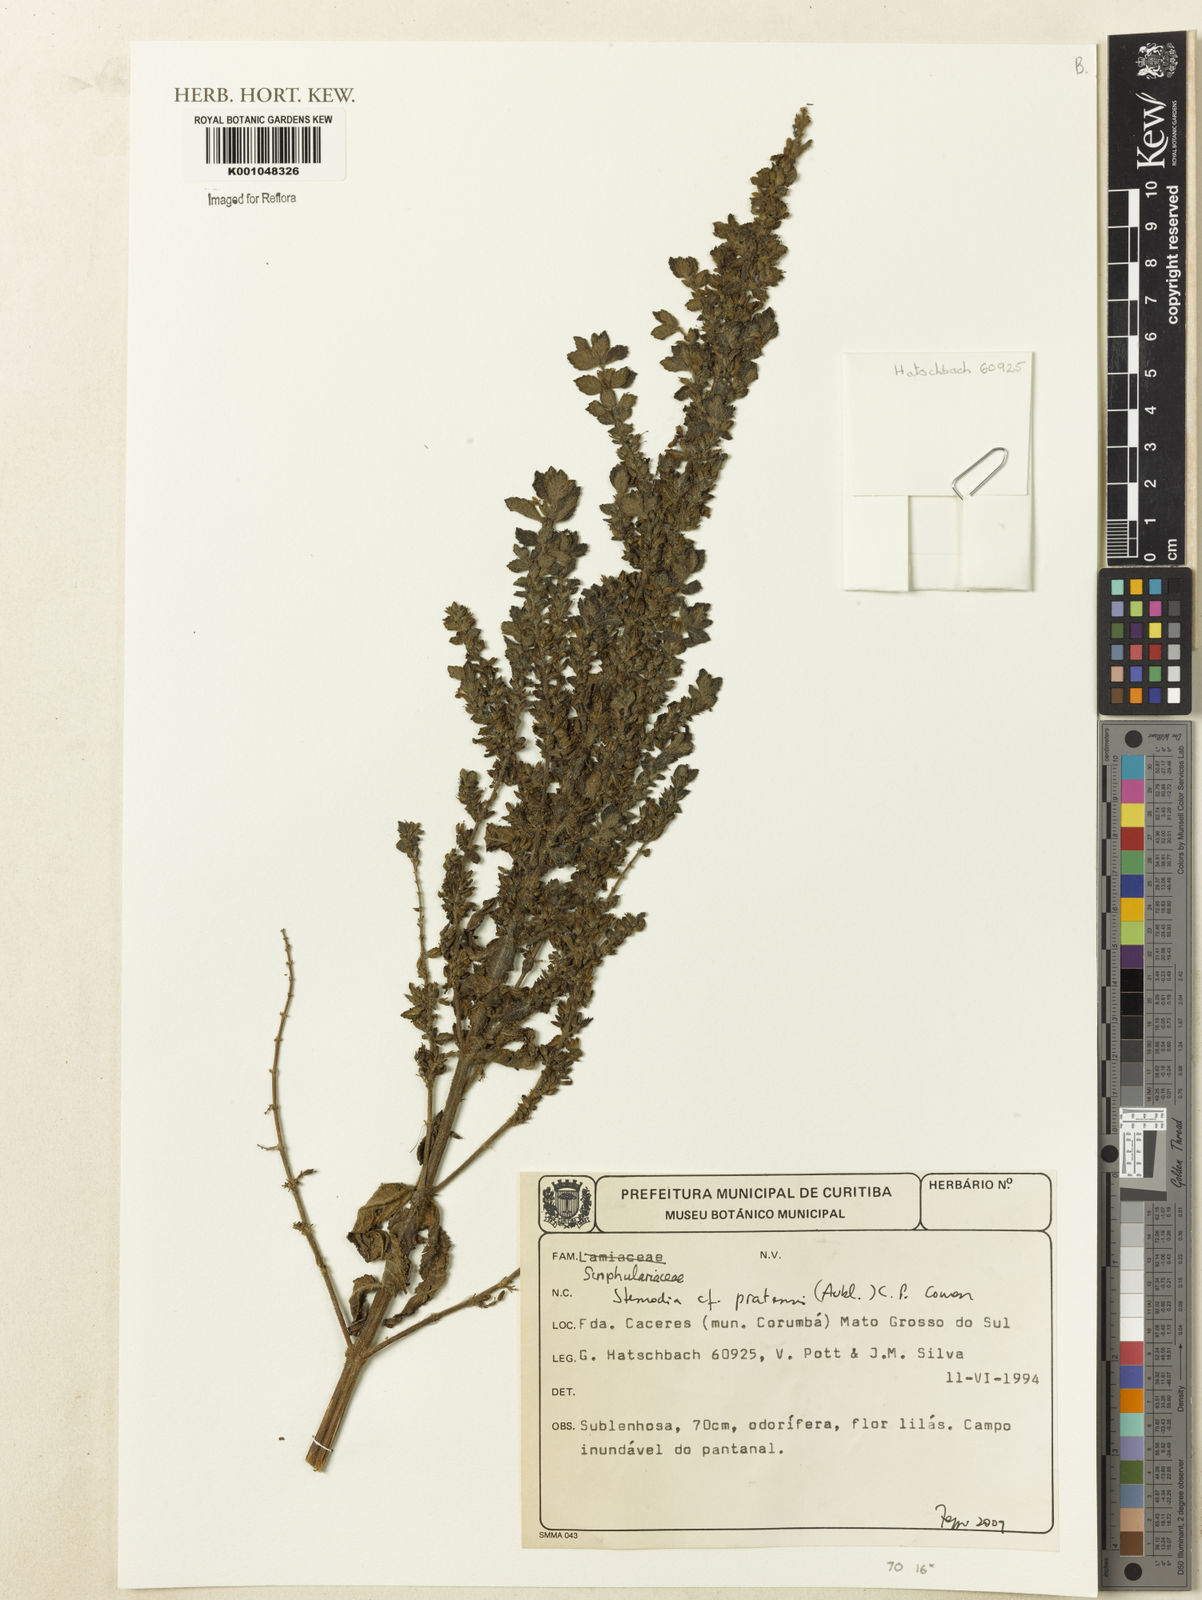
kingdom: Plantae
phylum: Tracheophyta
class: Magnoliopsida
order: Lamiales
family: Plantaginaceae
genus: Stemodia
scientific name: Stemodia foliosa
